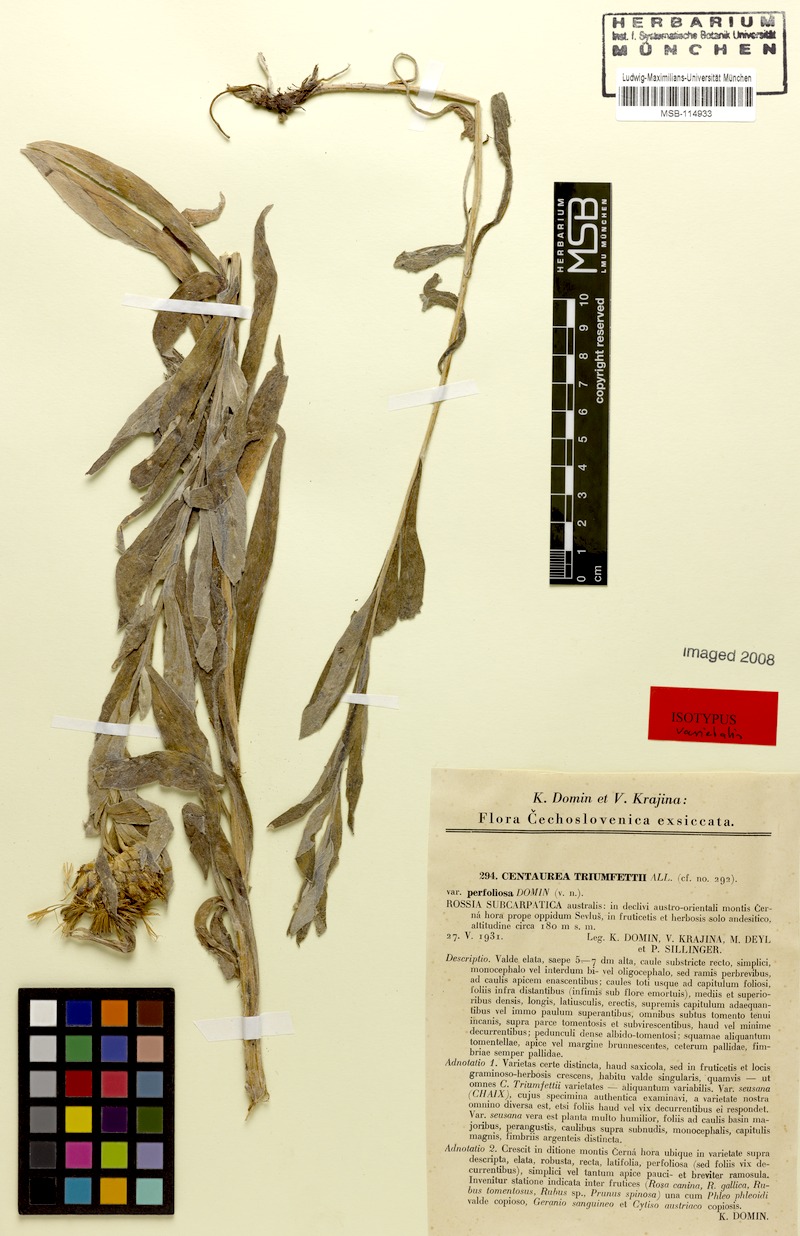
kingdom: Plantae
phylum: Tracheophyta
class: Magnoliopsida
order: Asterales
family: Asteraceae
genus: Centaurea
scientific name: Centaurea stricta
